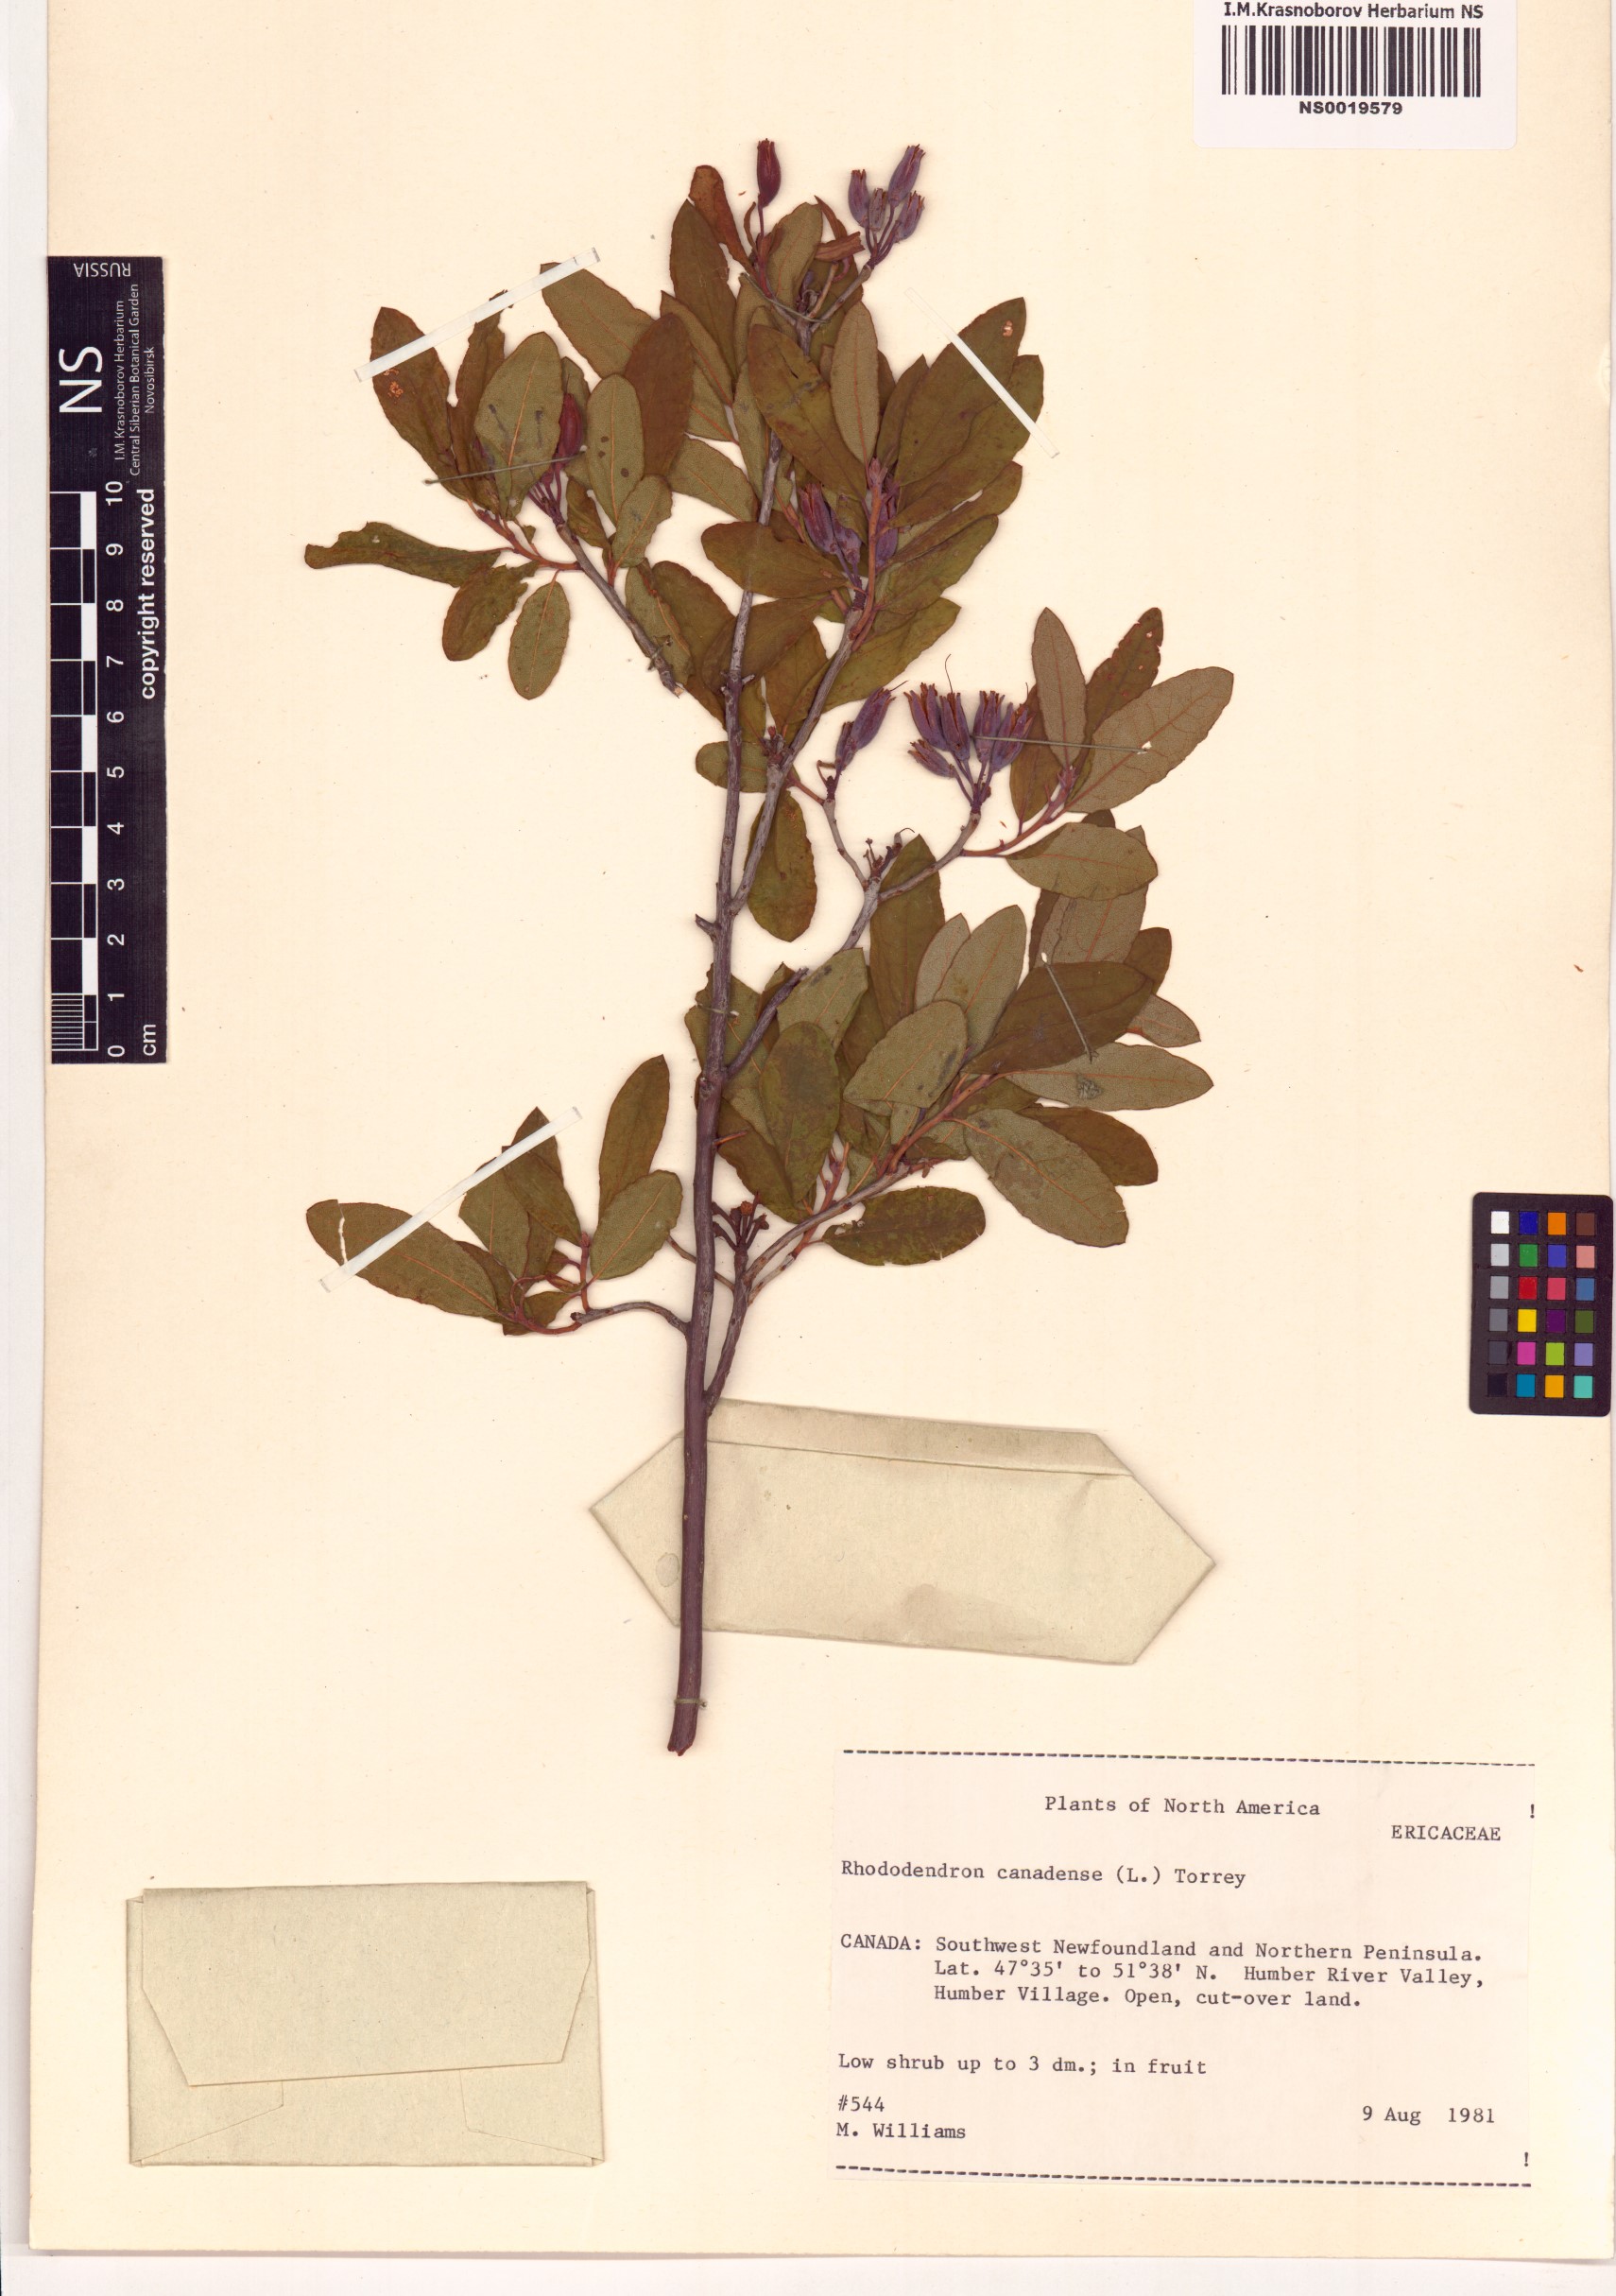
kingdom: Plantae
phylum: Tracheophyta
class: Magnoliopsida
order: Ericales
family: Ericaceae
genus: Rhododendron
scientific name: Rhododendron canadense
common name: Rhodora
